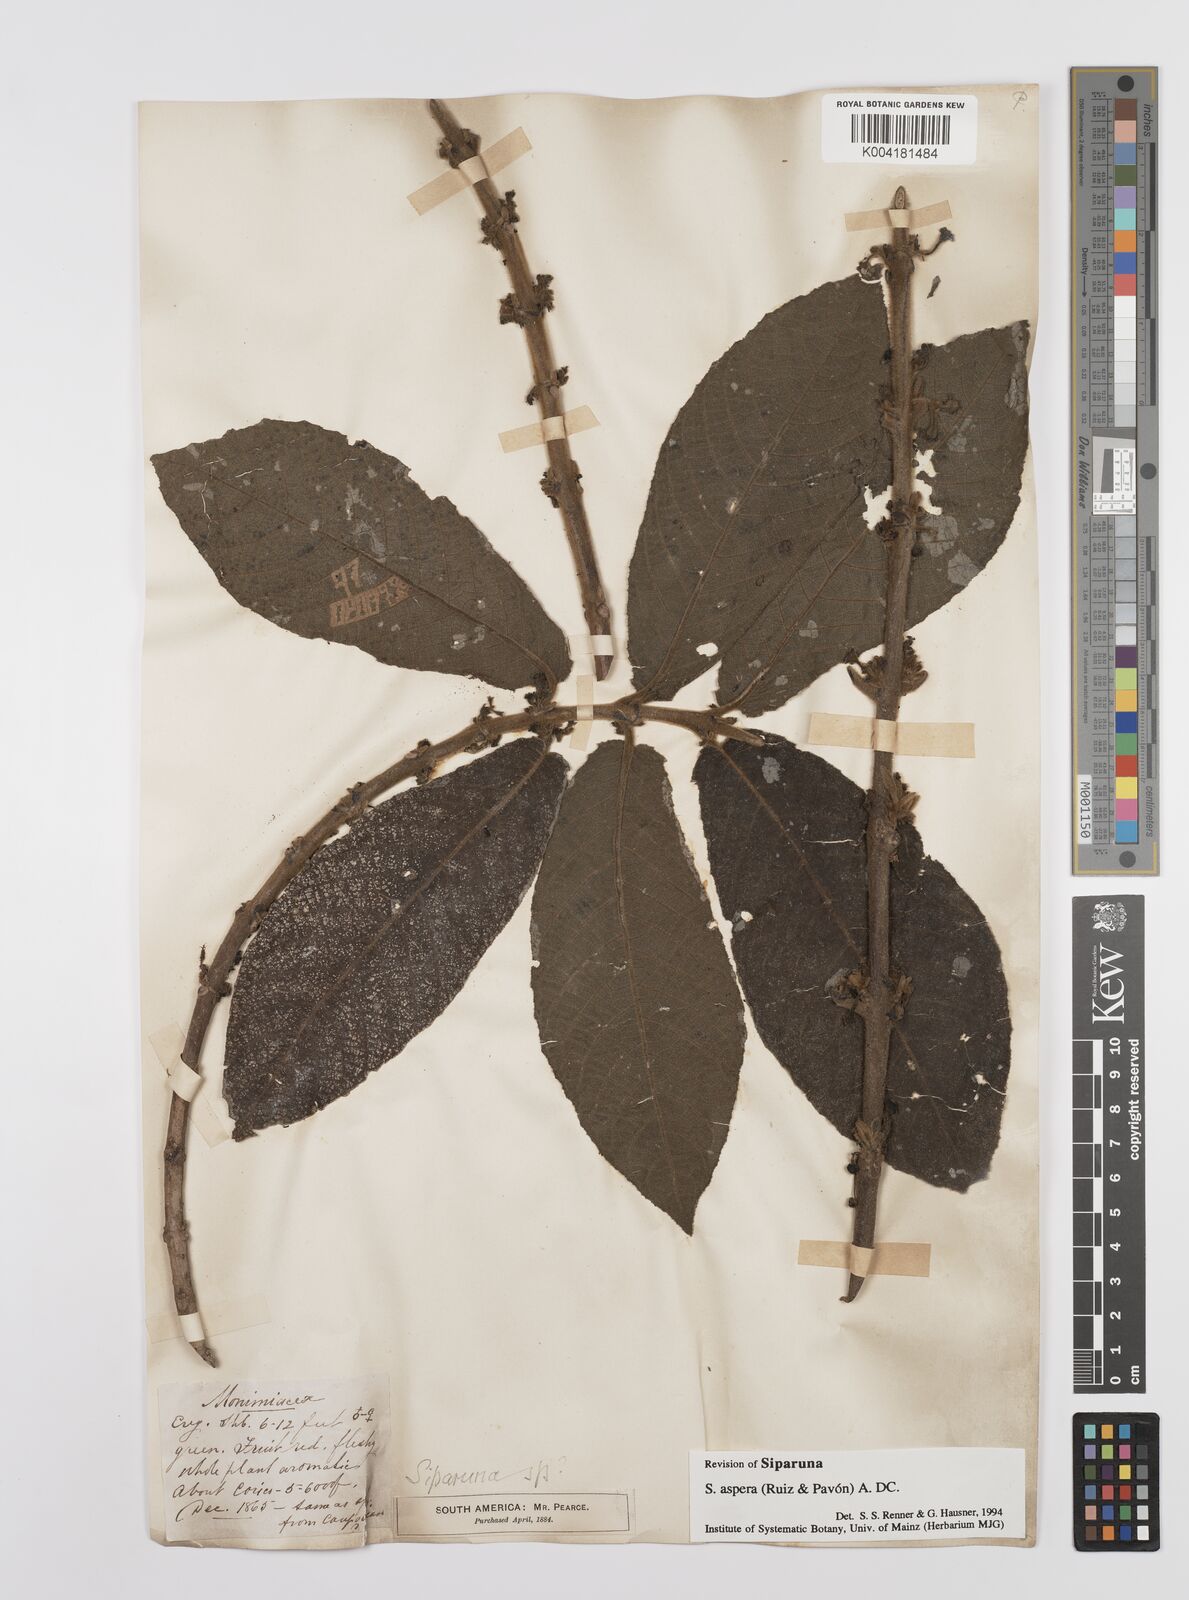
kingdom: Plantae
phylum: Tracheophyta
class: Magnoliopsida
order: Laurales
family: Siparunaceae
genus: Siparuna
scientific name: Siparuna aspera
